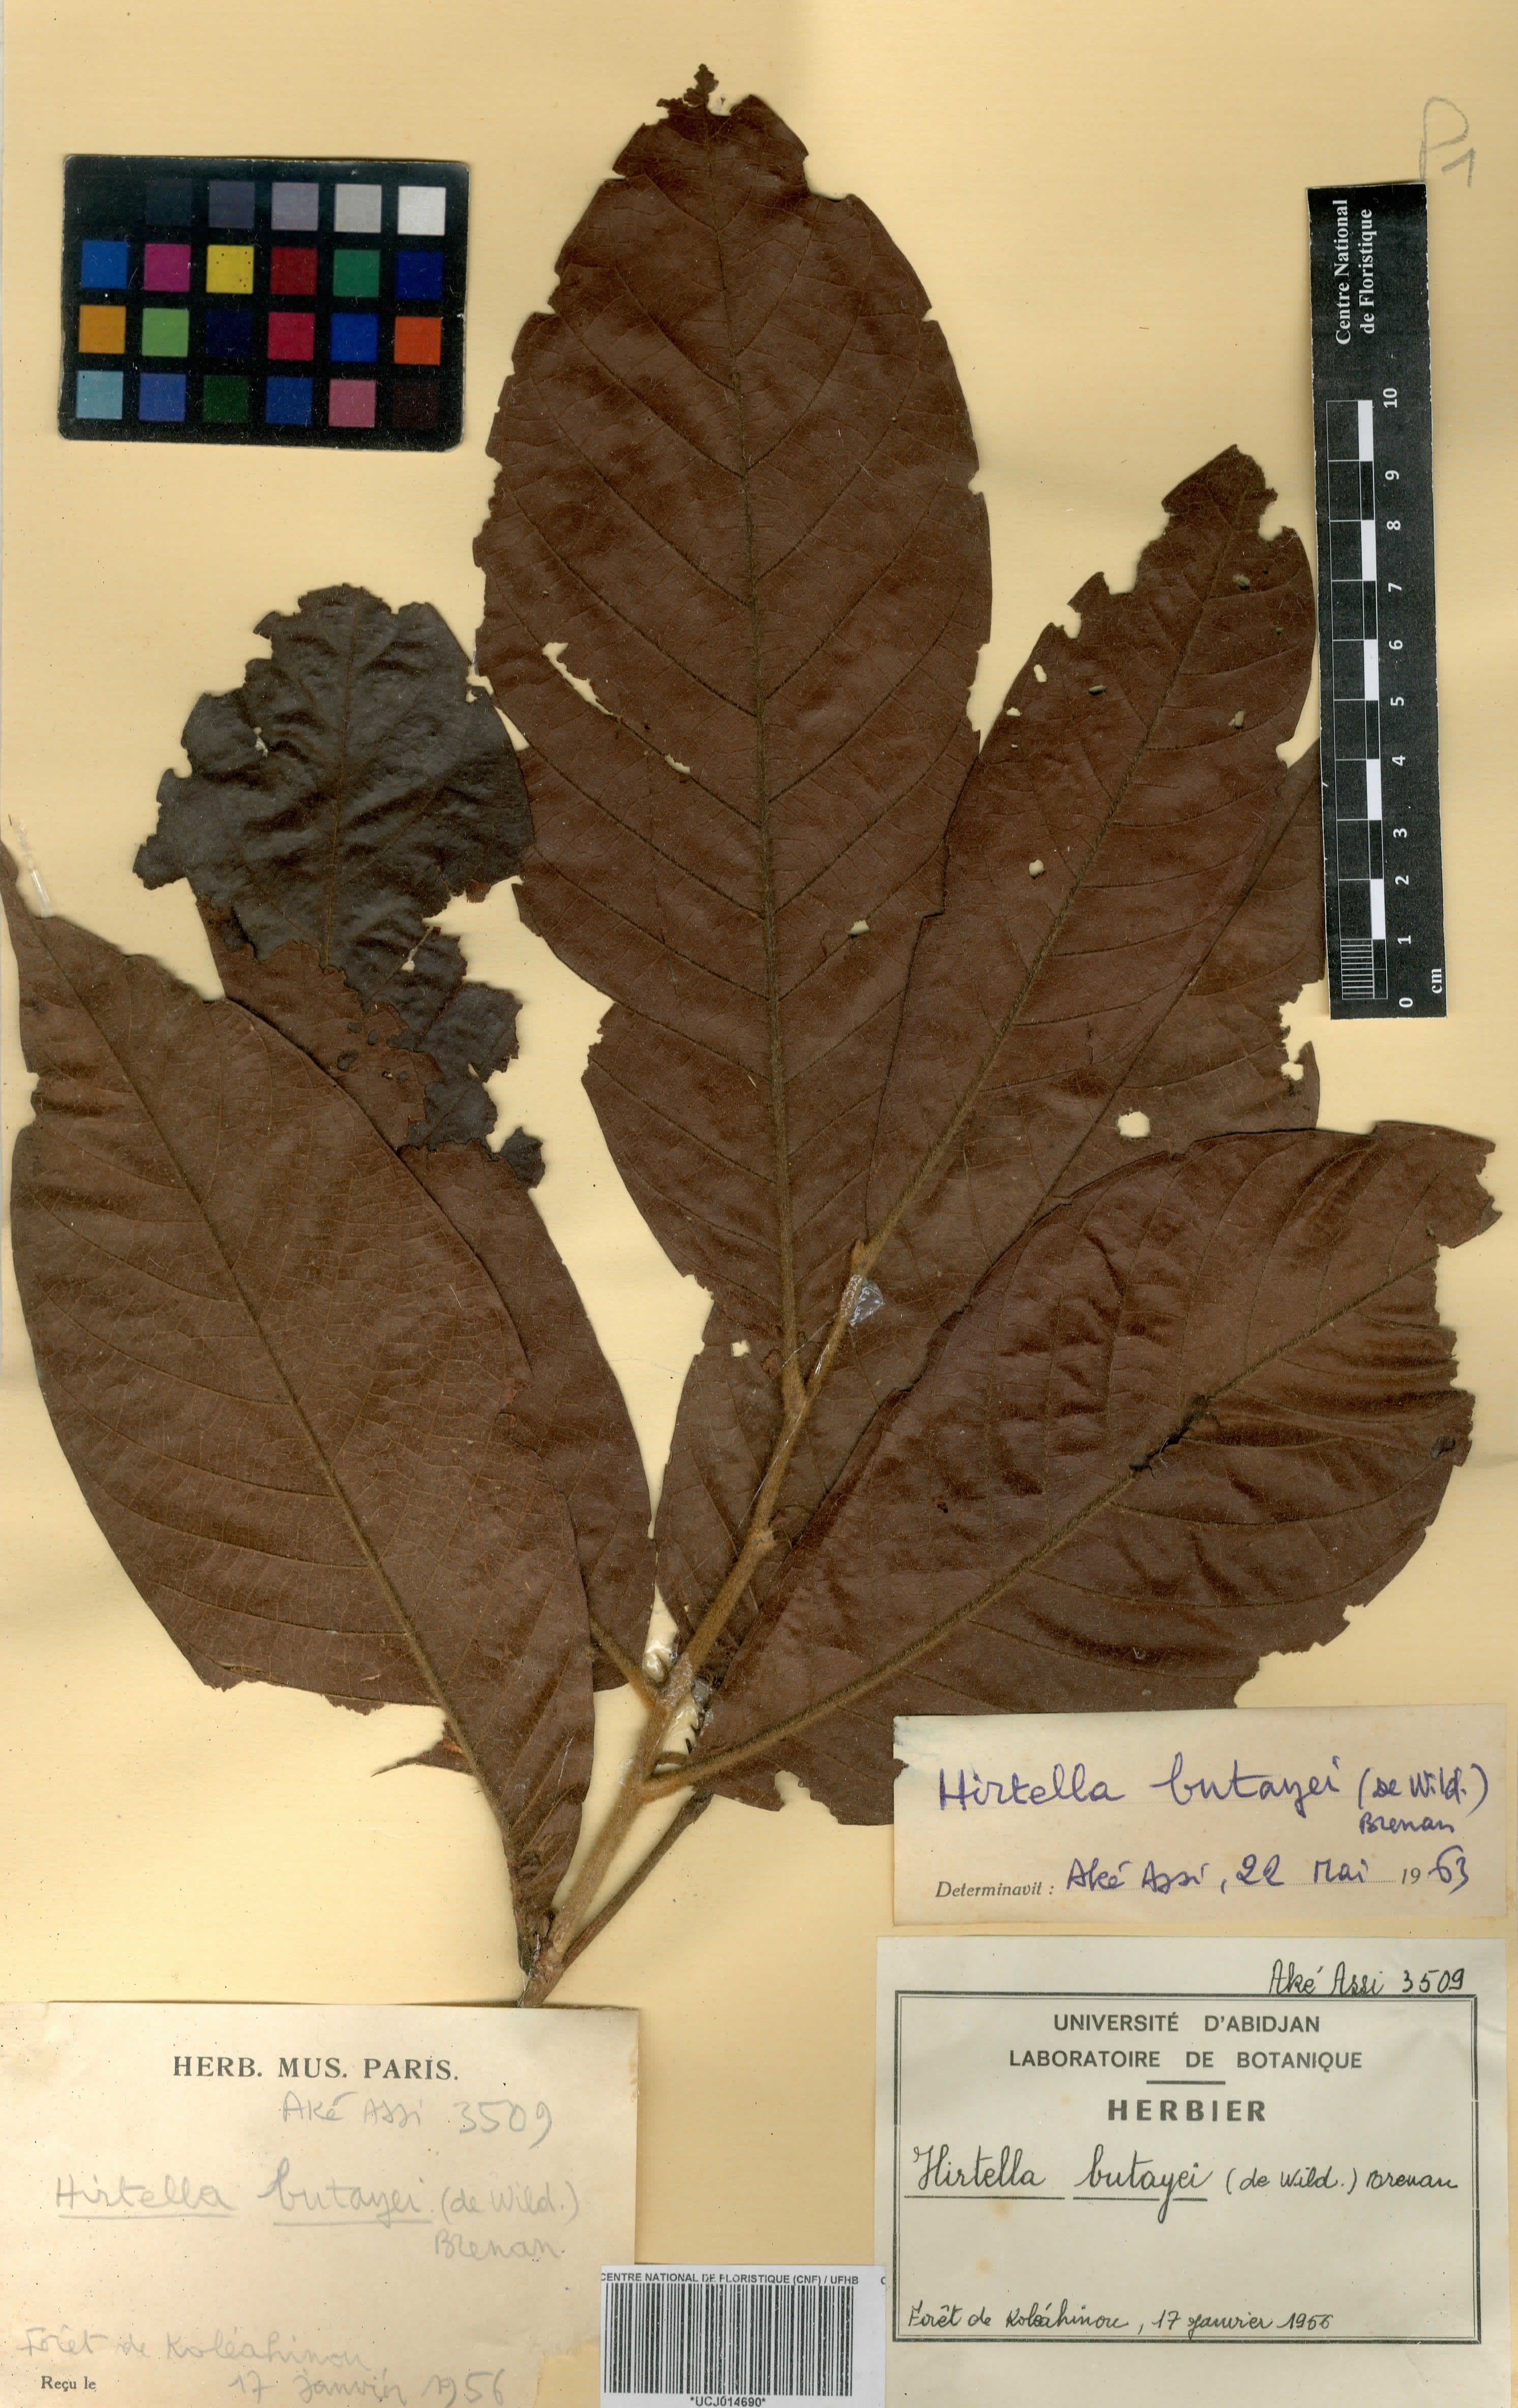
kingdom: Plantae
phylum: Tracheophyta
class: Magnoliopsida
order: Malpighiales
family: Chrysobalanaceae
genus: Magnistipula
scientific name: Magnistipula butayei
